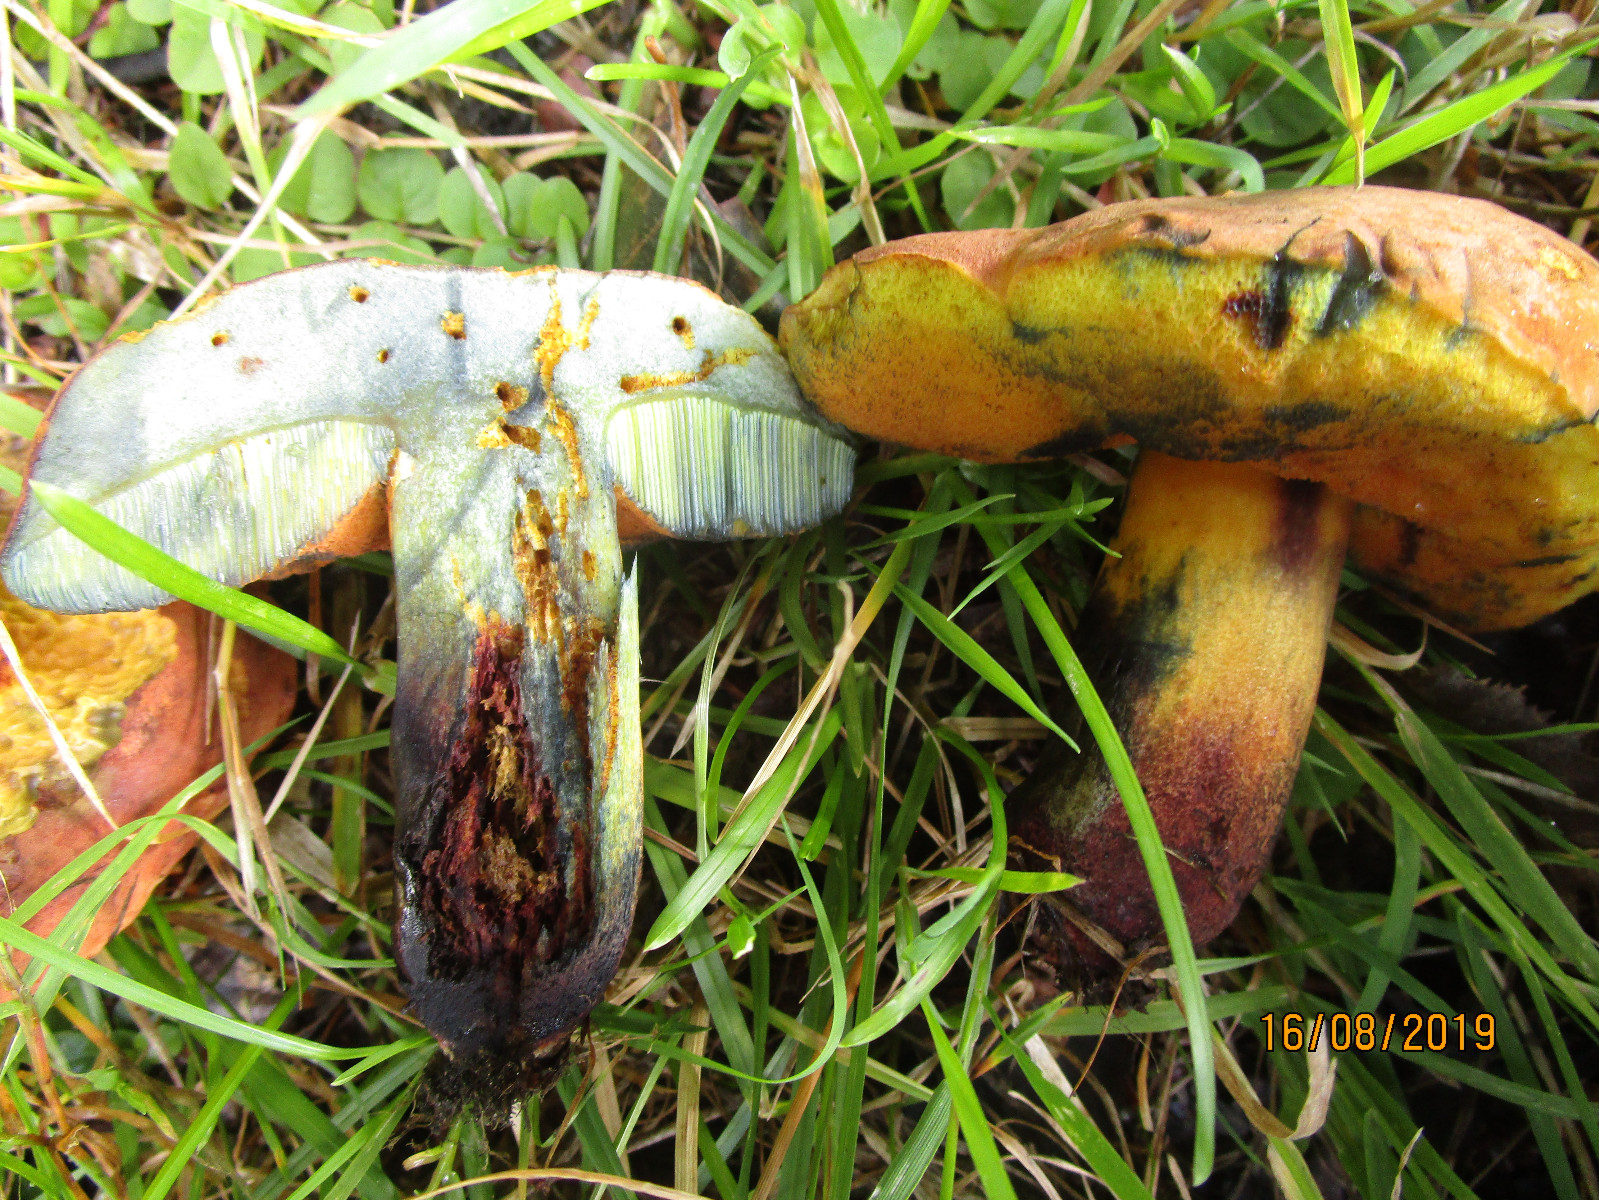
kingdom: Fungi
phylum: Basidiomycota
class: Agaricomycetes
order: Boletales
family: Boletaceae
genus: Suillellus
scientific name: Suillellus queletii
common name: glatstokket indigorørhat
